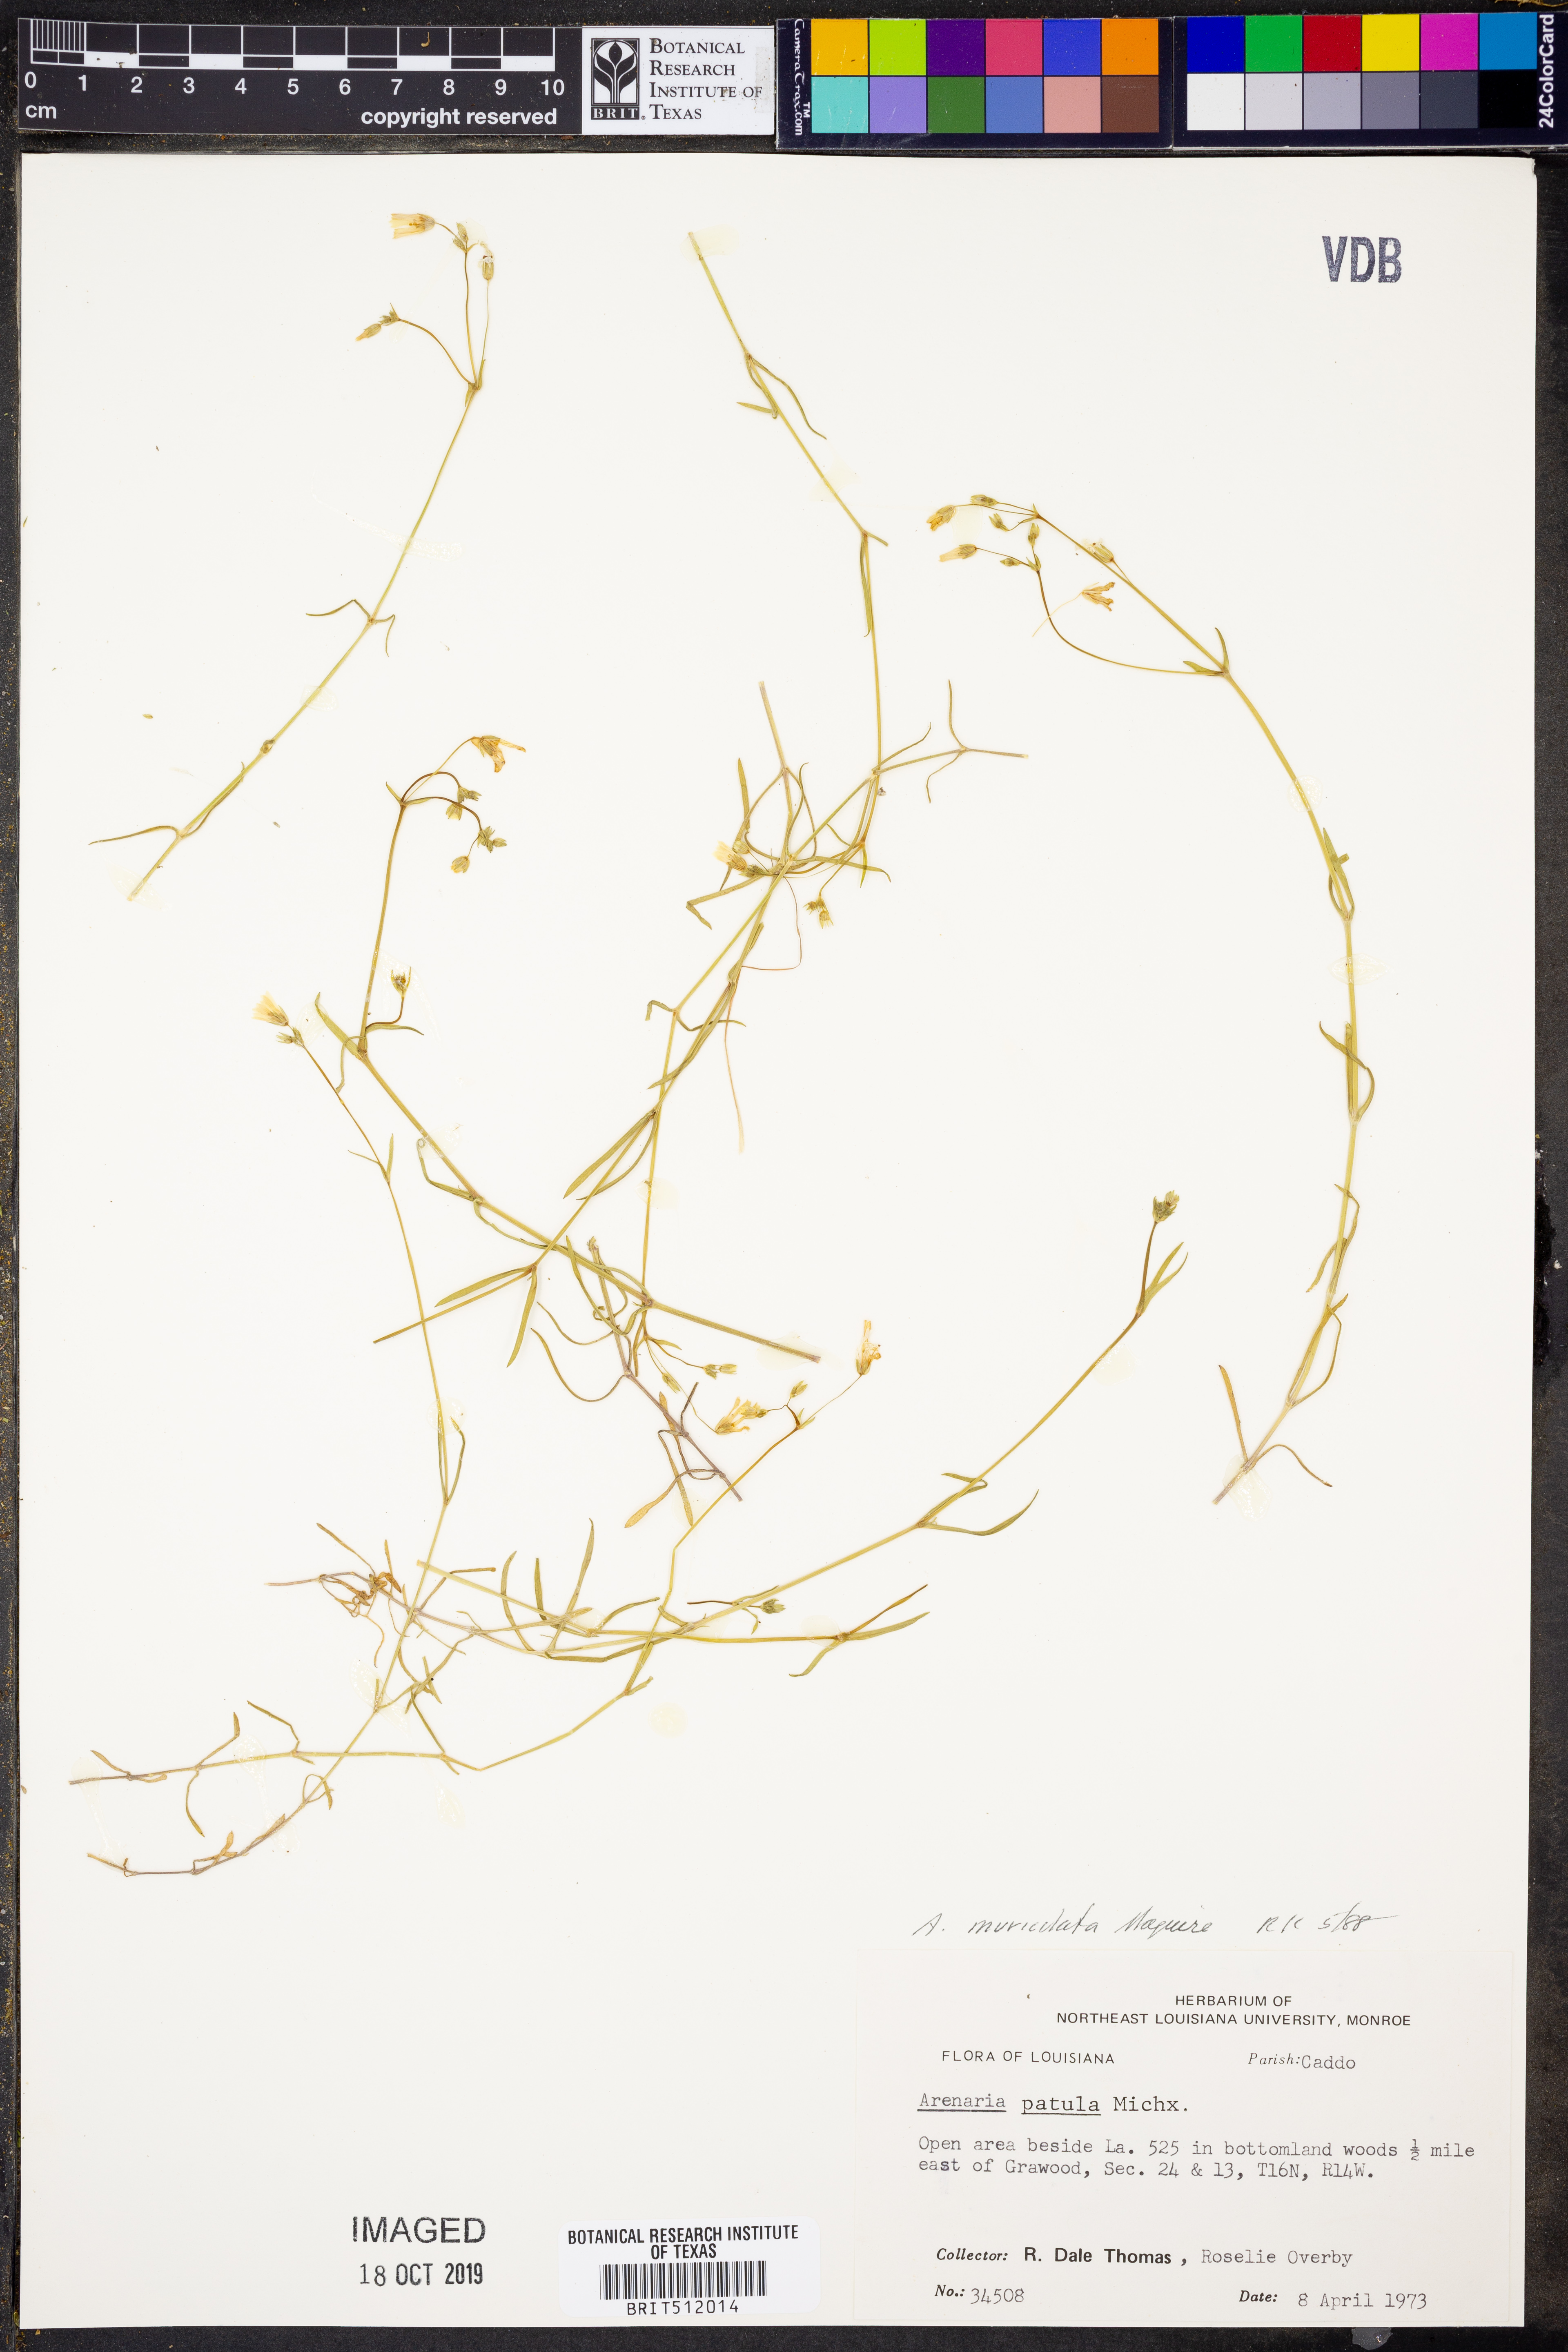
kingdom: Plantae
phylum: Tracheophyta
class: Magnoliopsida
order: Caryophyllales
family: Caryophyllaceae
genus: Mononeuria
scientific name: Mononeuria muscorum
